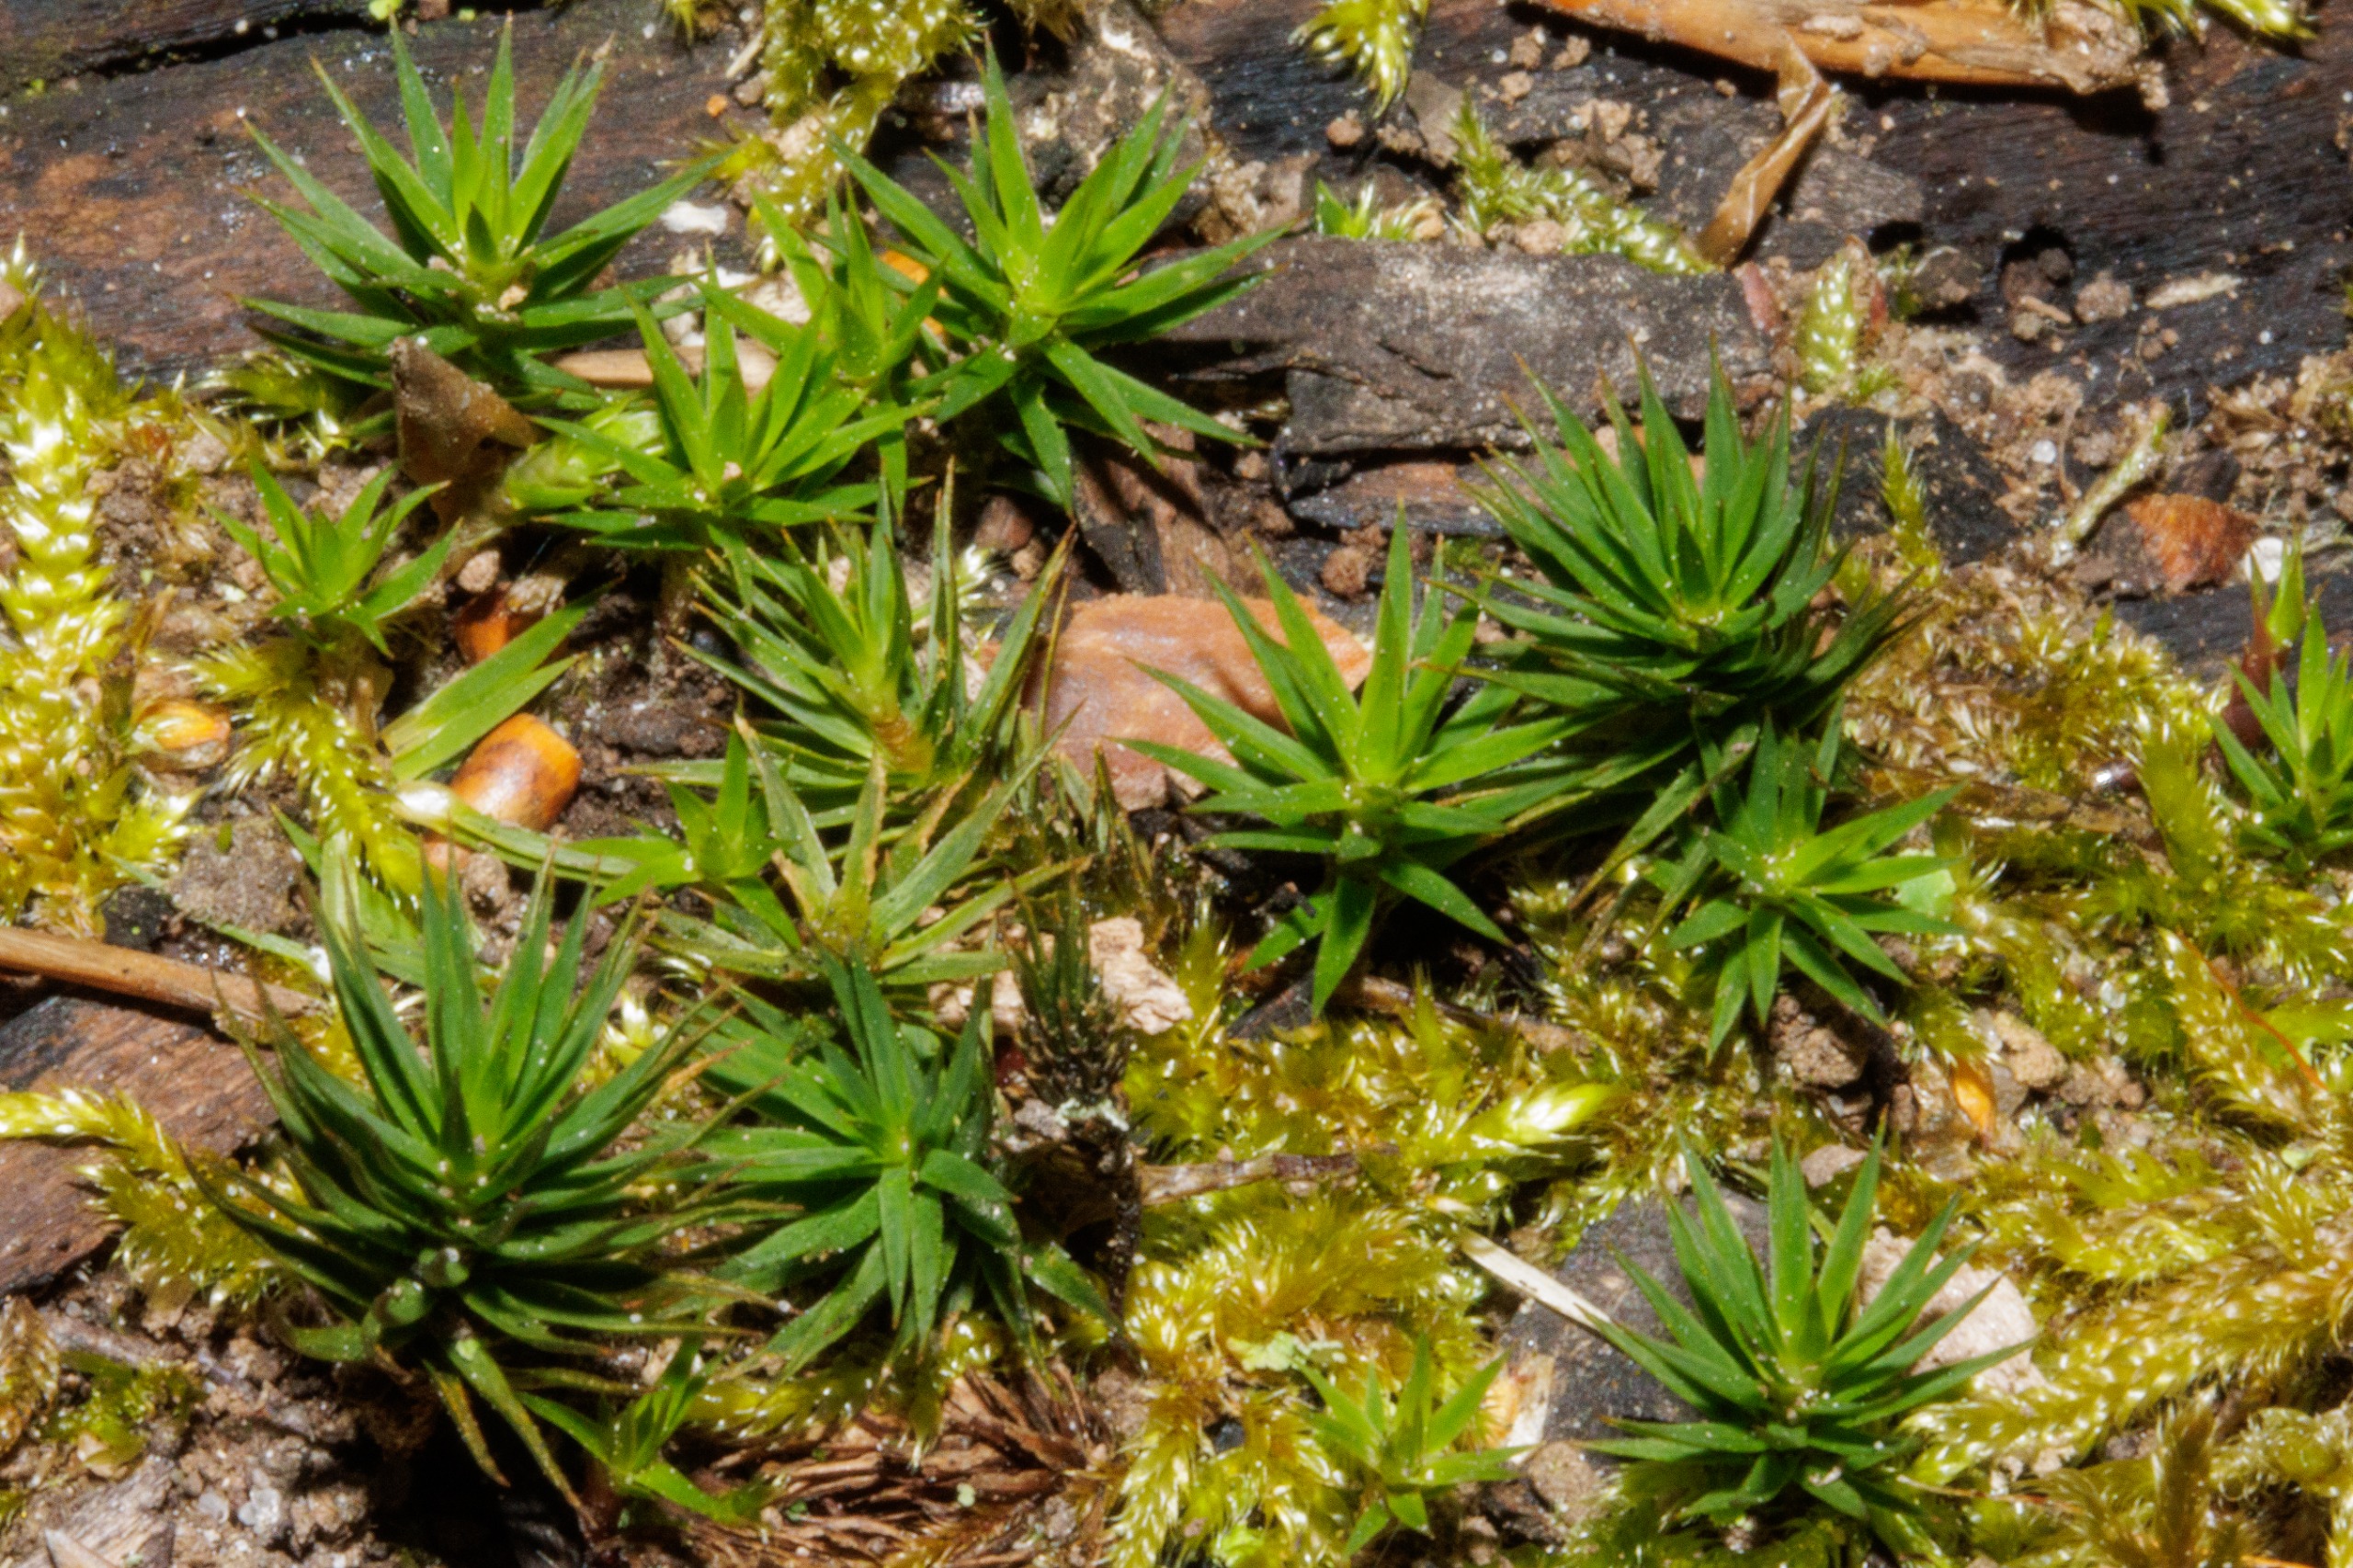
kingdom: Plantae
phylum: Bryophyta
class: Polytrichopsida
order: Polytrichales
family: Polytrichaceae
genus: Polytrichum
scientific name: Polytrichum formosum
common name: Skov-jomfruhår
